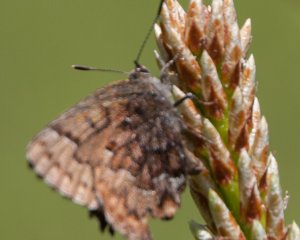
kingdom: Animalia
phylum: Arthropoda
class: Insecta
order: Lepidoptera
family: Lycaenidae
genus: Incisalia
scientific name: Incisalia niphon
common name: Eastern Pine Elfin
